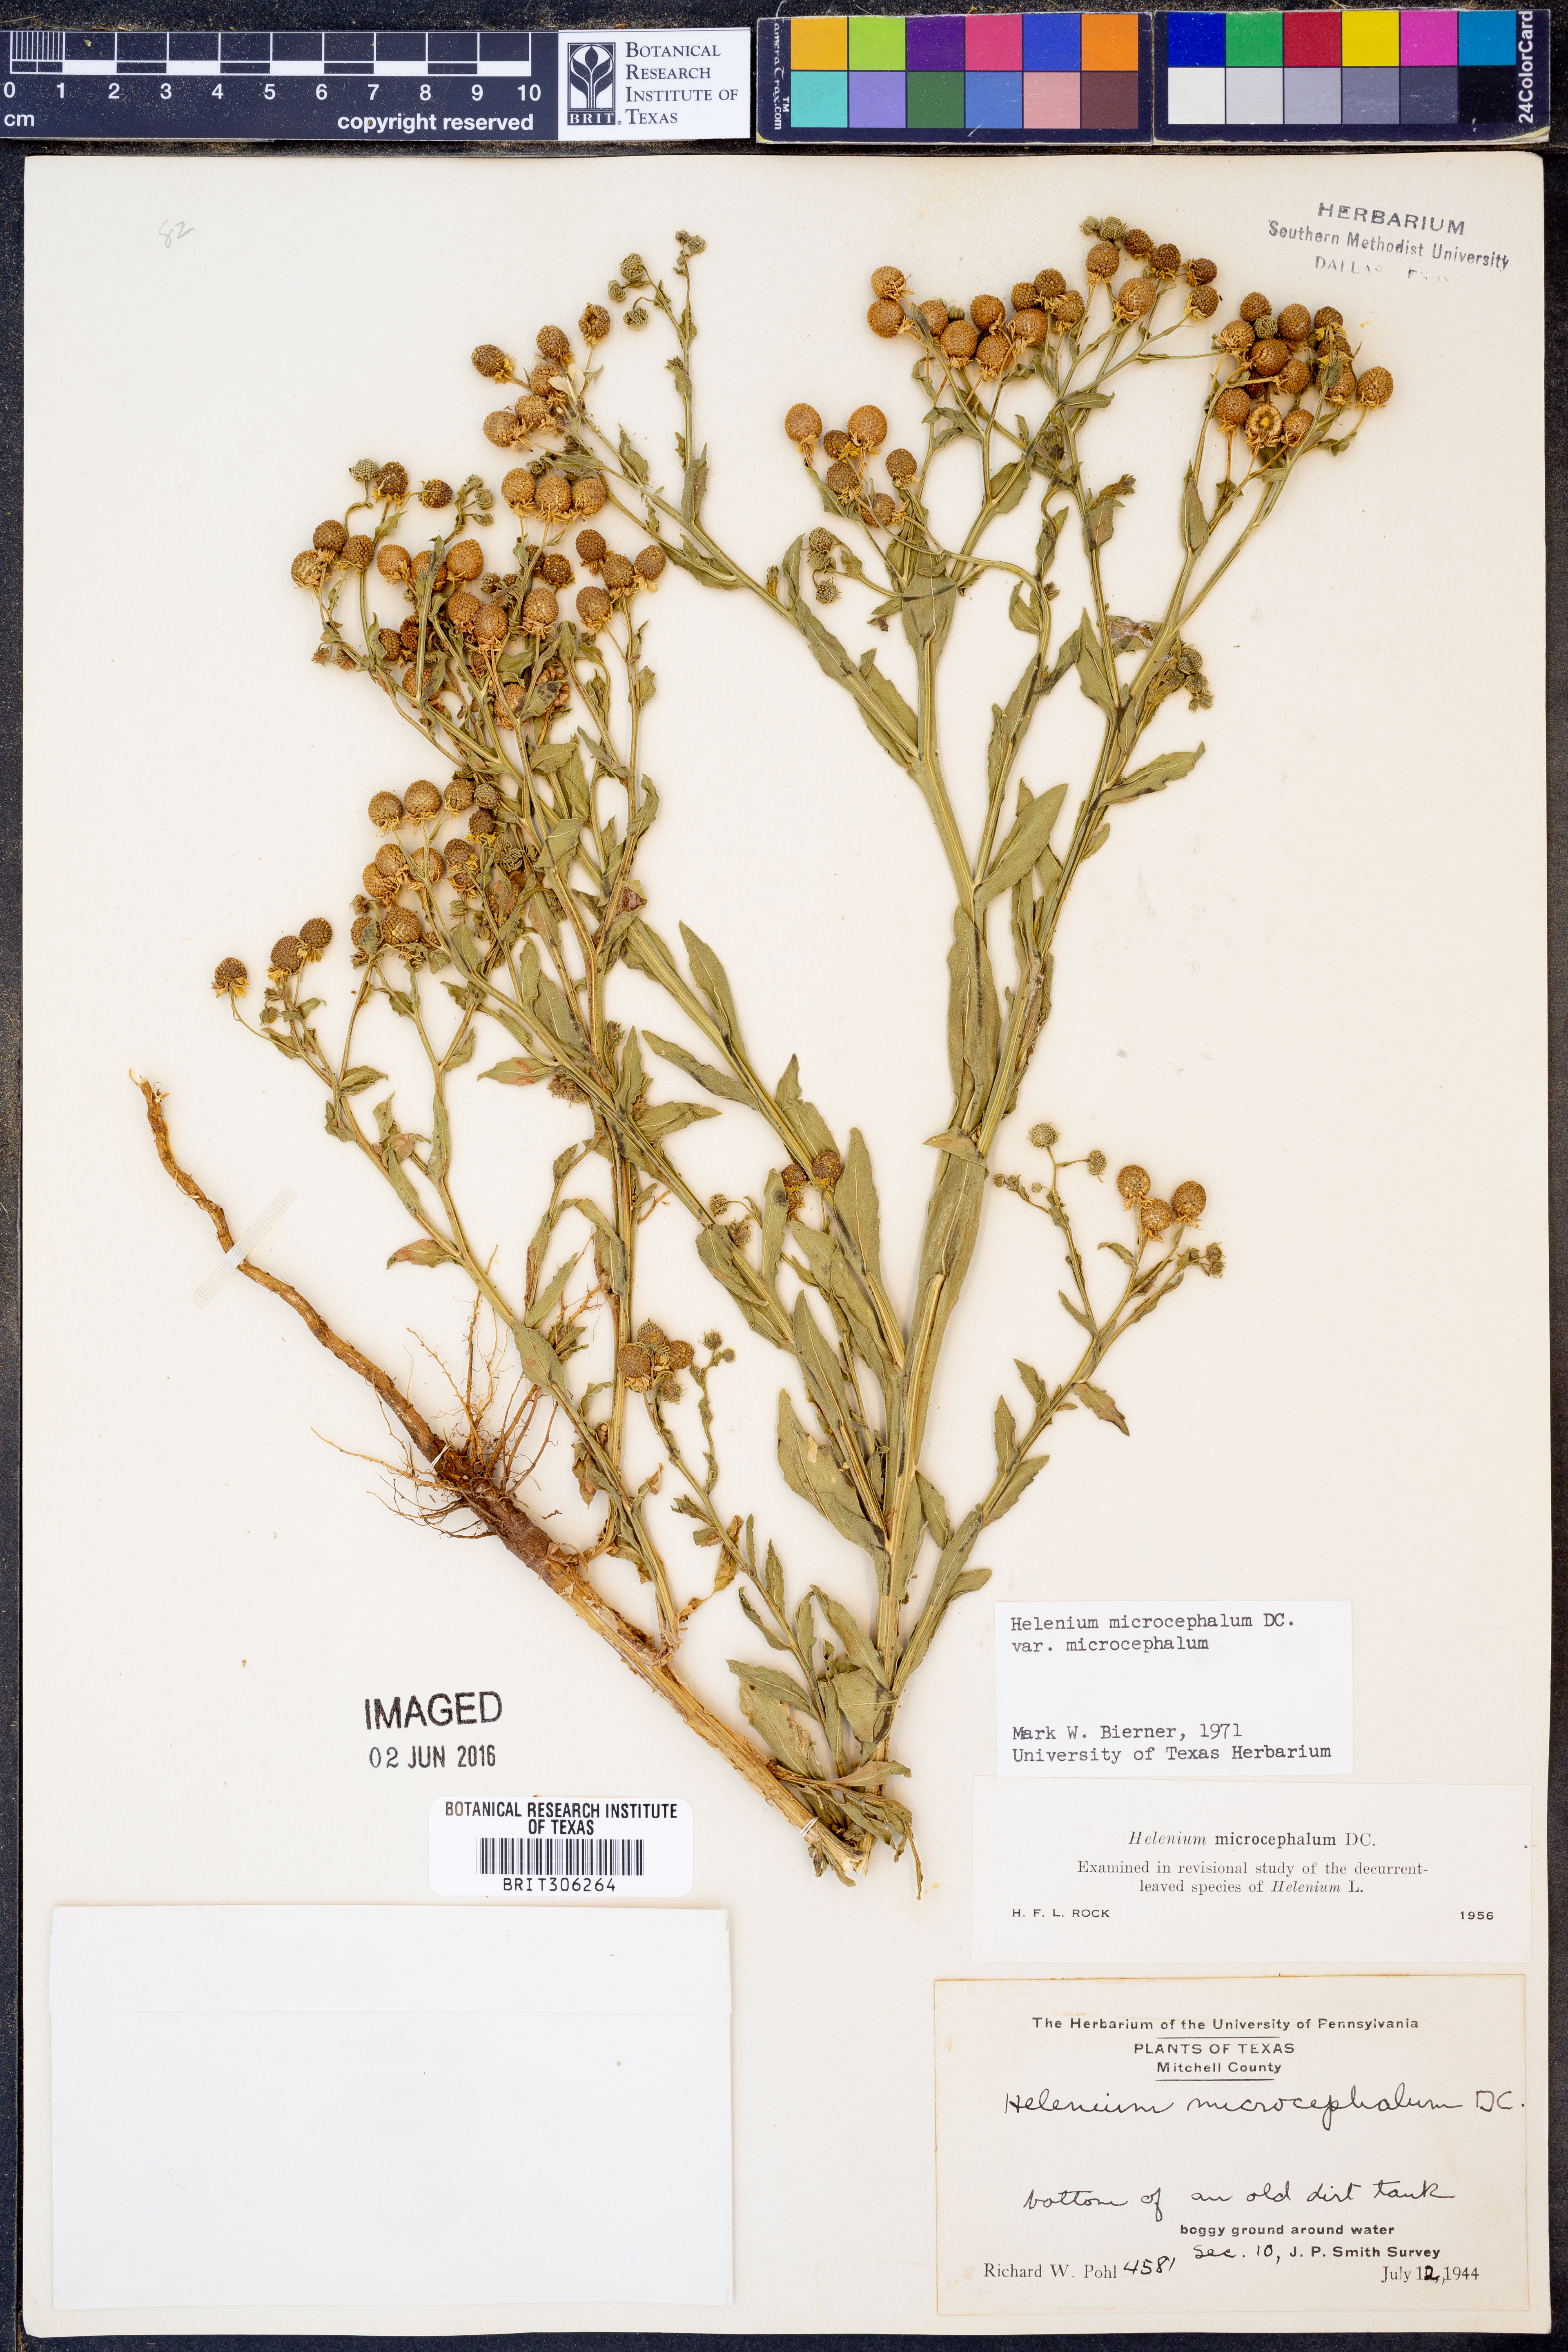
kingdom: Plantae
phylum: Tracheophyta
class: Magnoliopsida
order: Asterales
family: Asteraceae
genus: Helenium
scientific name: Helenium microcephalum
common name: Smallhead sneezeweed
